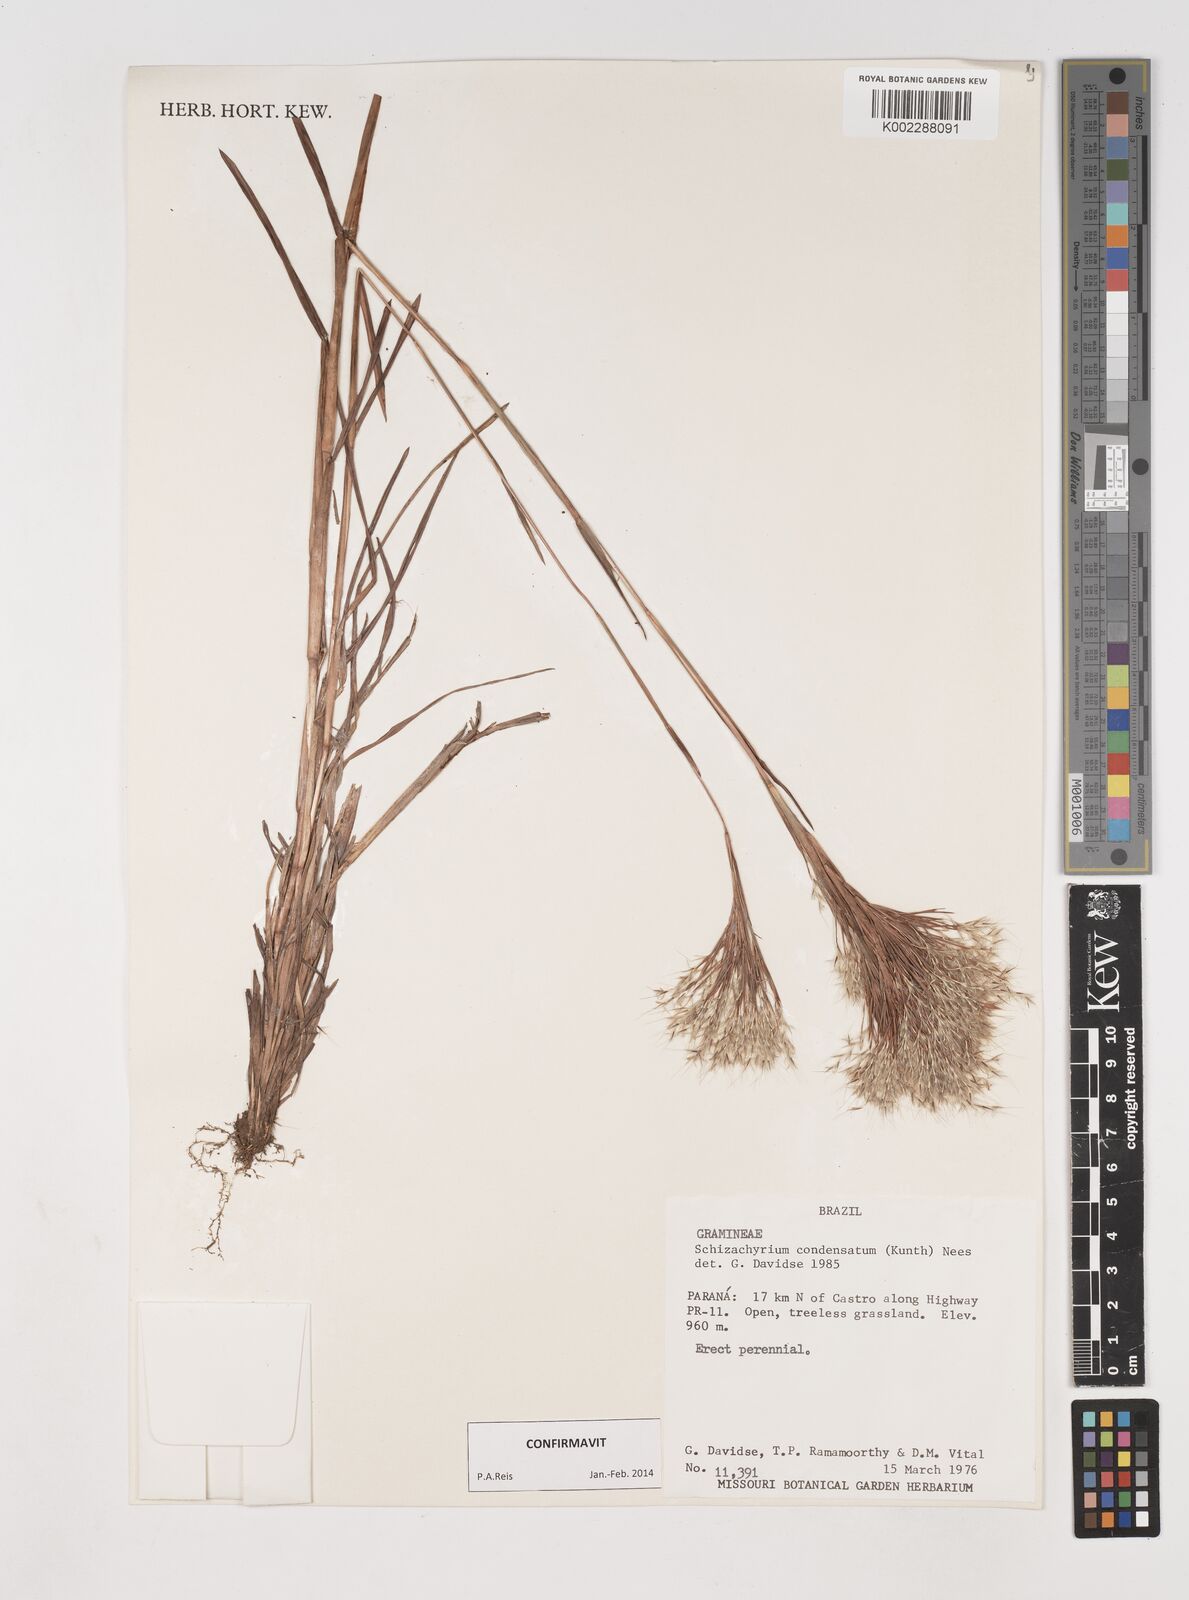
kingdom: Plantae
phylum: Tracheophyta
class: Liliopsida
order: Poales
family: Poaceae
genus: Schizachyrium
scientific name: Schizachyrium condensatum
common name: Bush beardgrass
